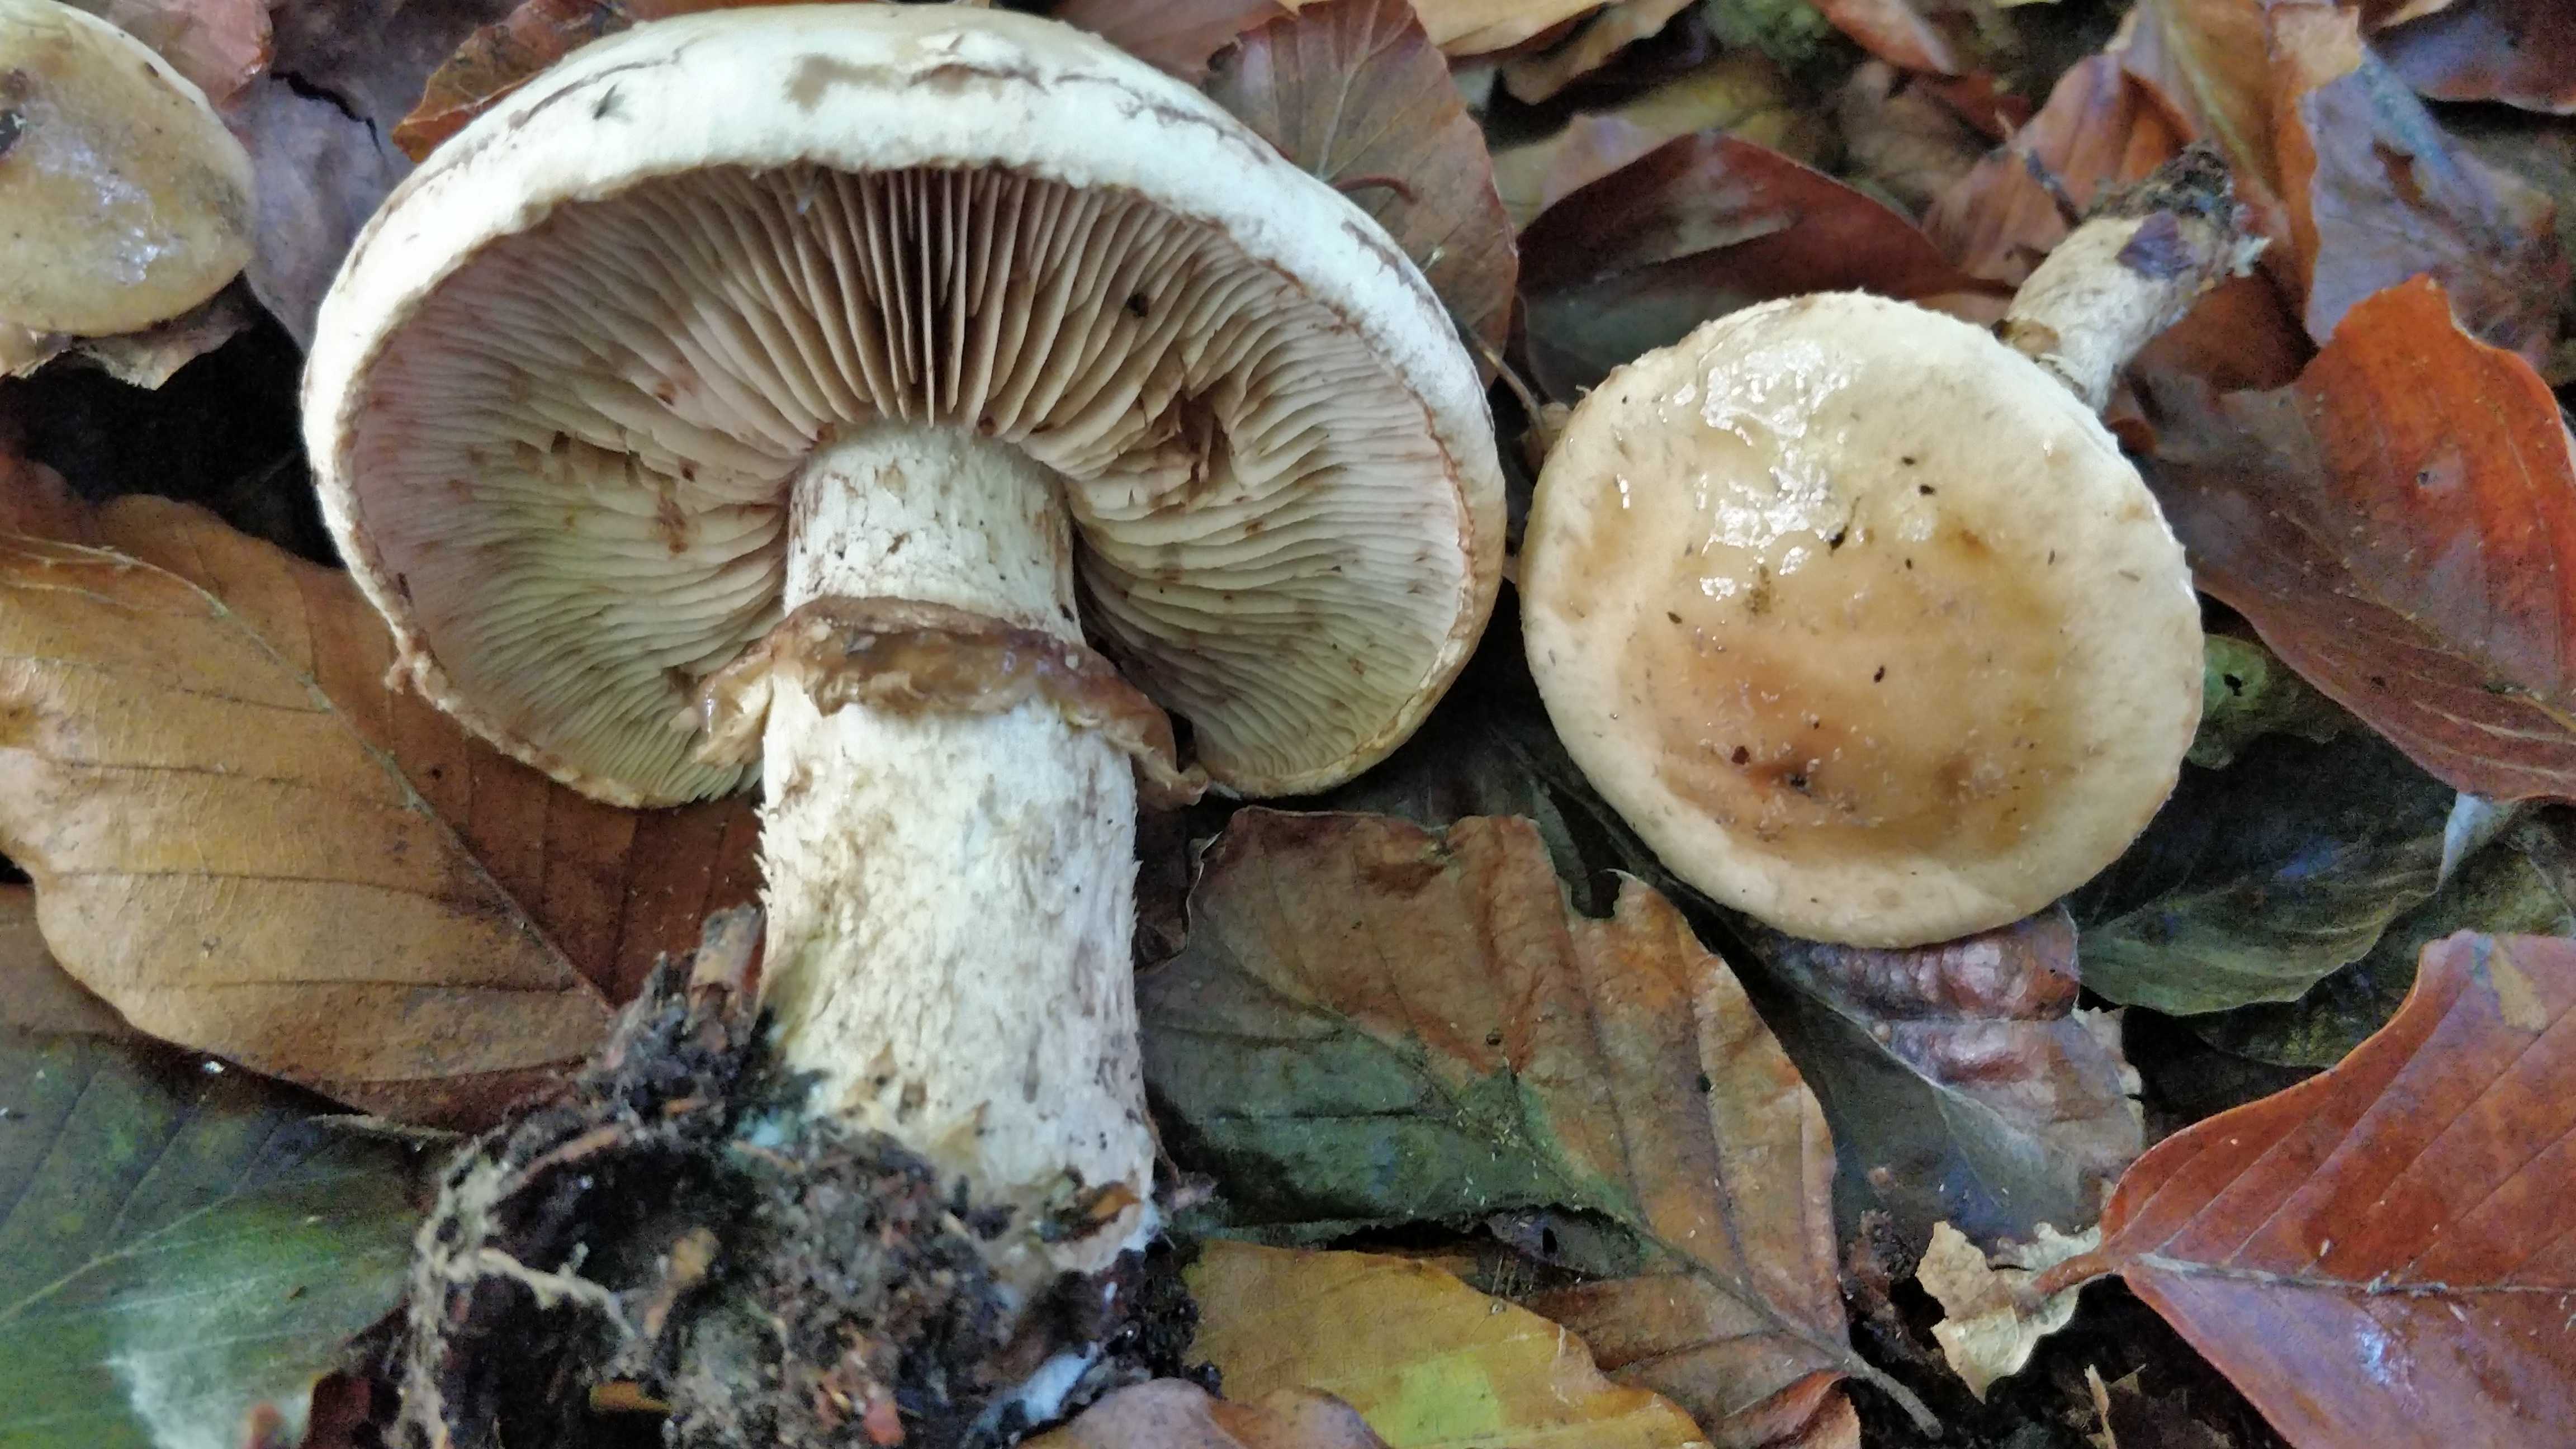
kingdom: Fungi
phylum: Basidiomycota
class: Agaricomycetes
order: Agaricales
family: Hymenogastraceae
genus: Hebeloma
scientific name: Hebeloma radicosum
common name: pælerods-tåreblad
